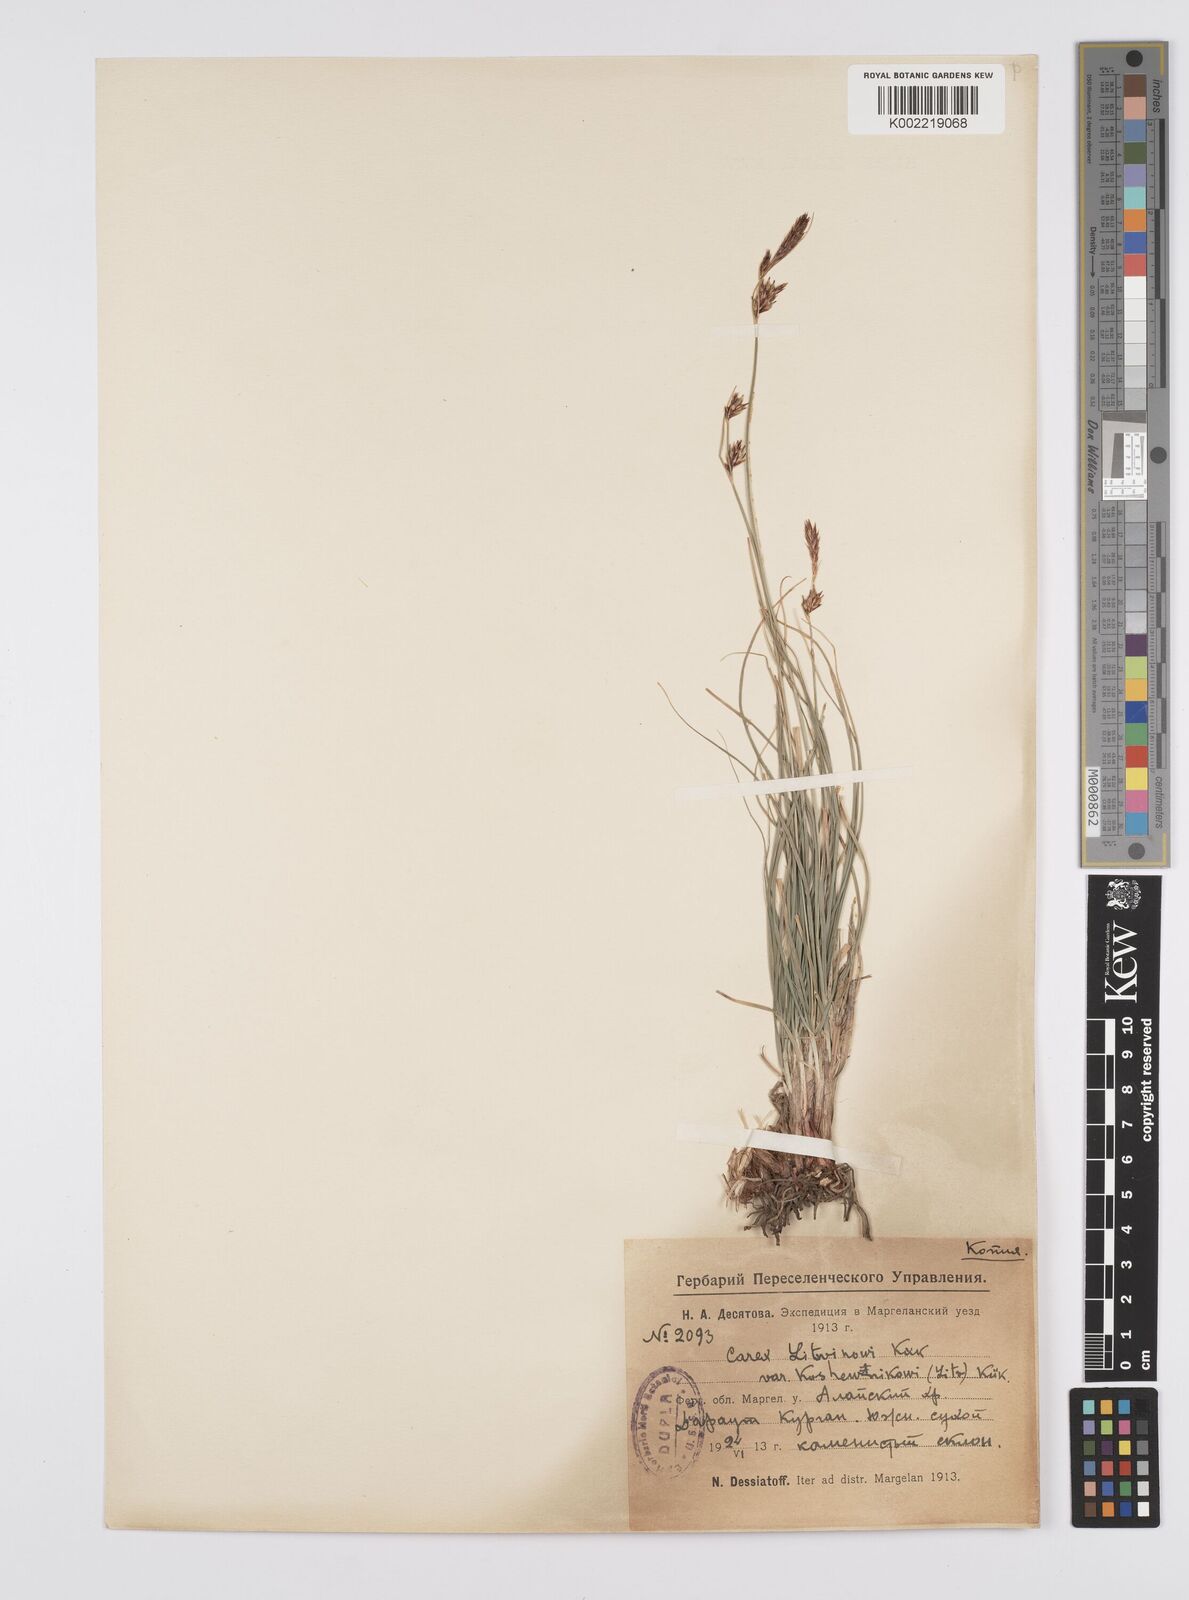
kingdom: Plantae
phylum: Tracheophyta
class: Liliopsida
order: Poales
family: Cyperaceae
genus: Carex
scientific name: Carex koshewnikowii
